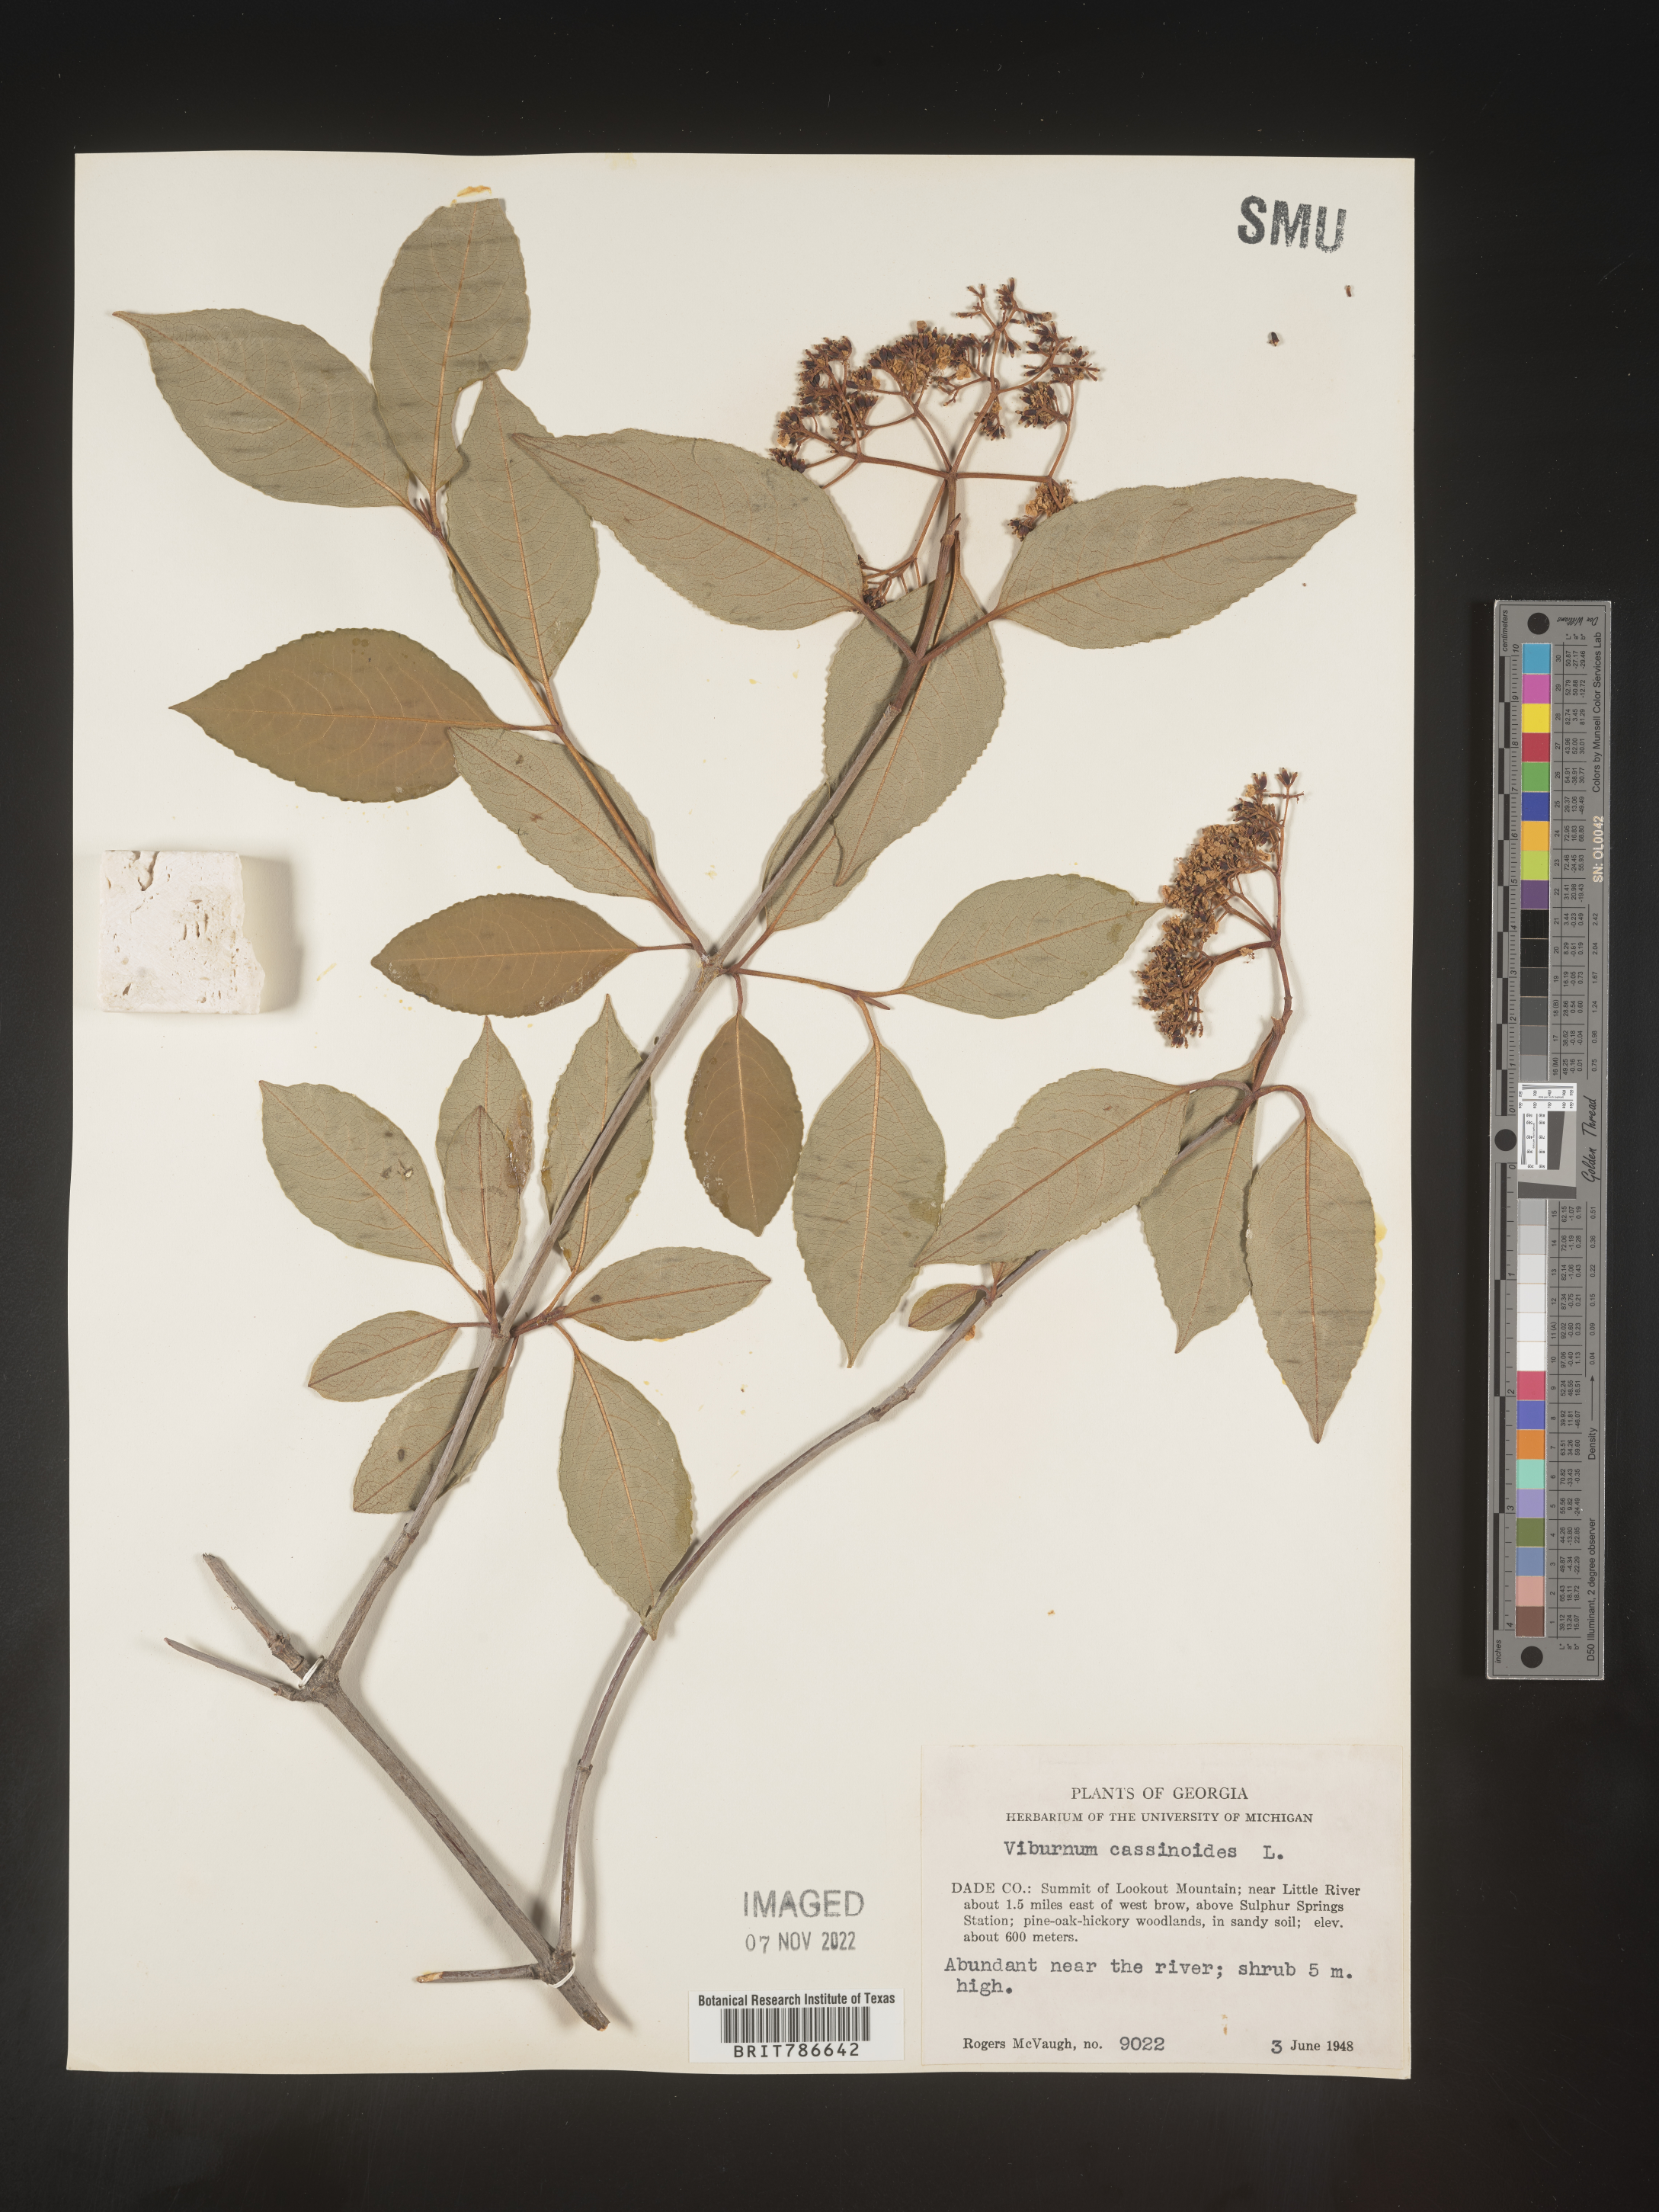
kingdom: Plantae
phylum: Tracheophyta
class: Magnoliopsida
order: Dipsacales
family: Viburnaceae
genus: Viburnum
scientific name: Viburnum cassinoides
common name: Swamp haw
